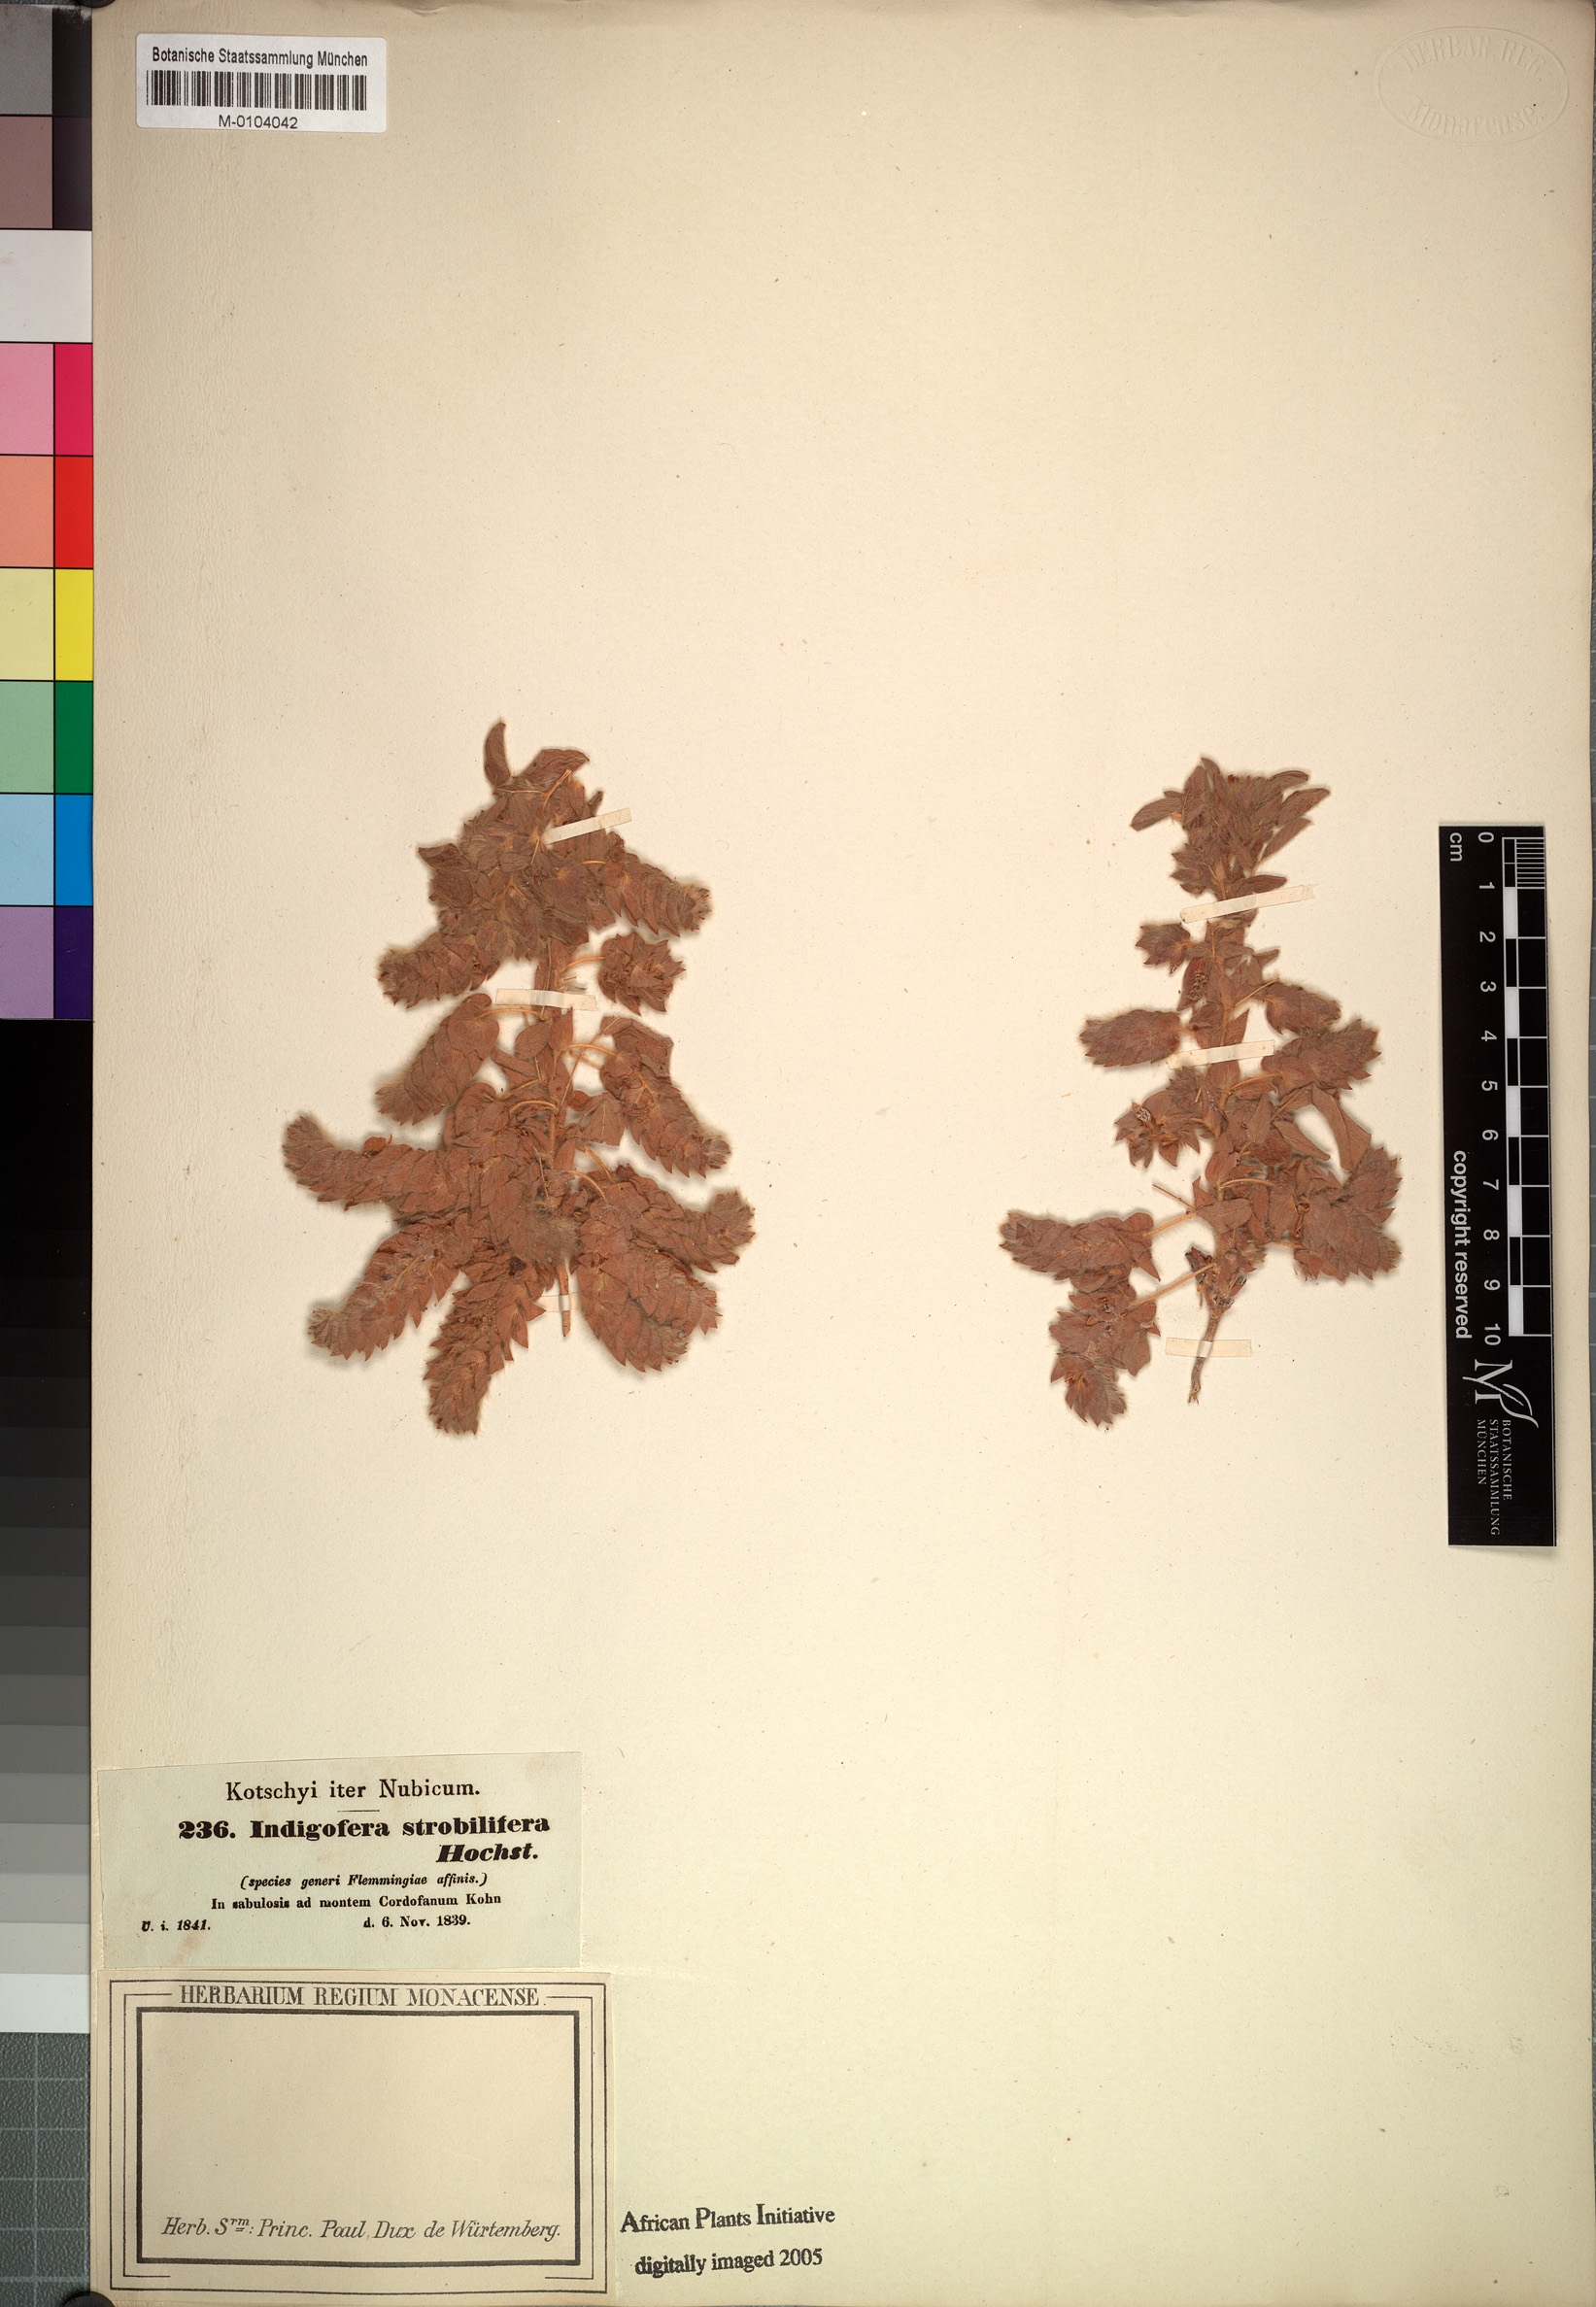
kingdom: Plantae
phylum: Tracheophyta
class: Magnoliopsida
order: Fabales
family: Fabaceae
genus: Indigofera
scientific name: Indigofera strobilifera
